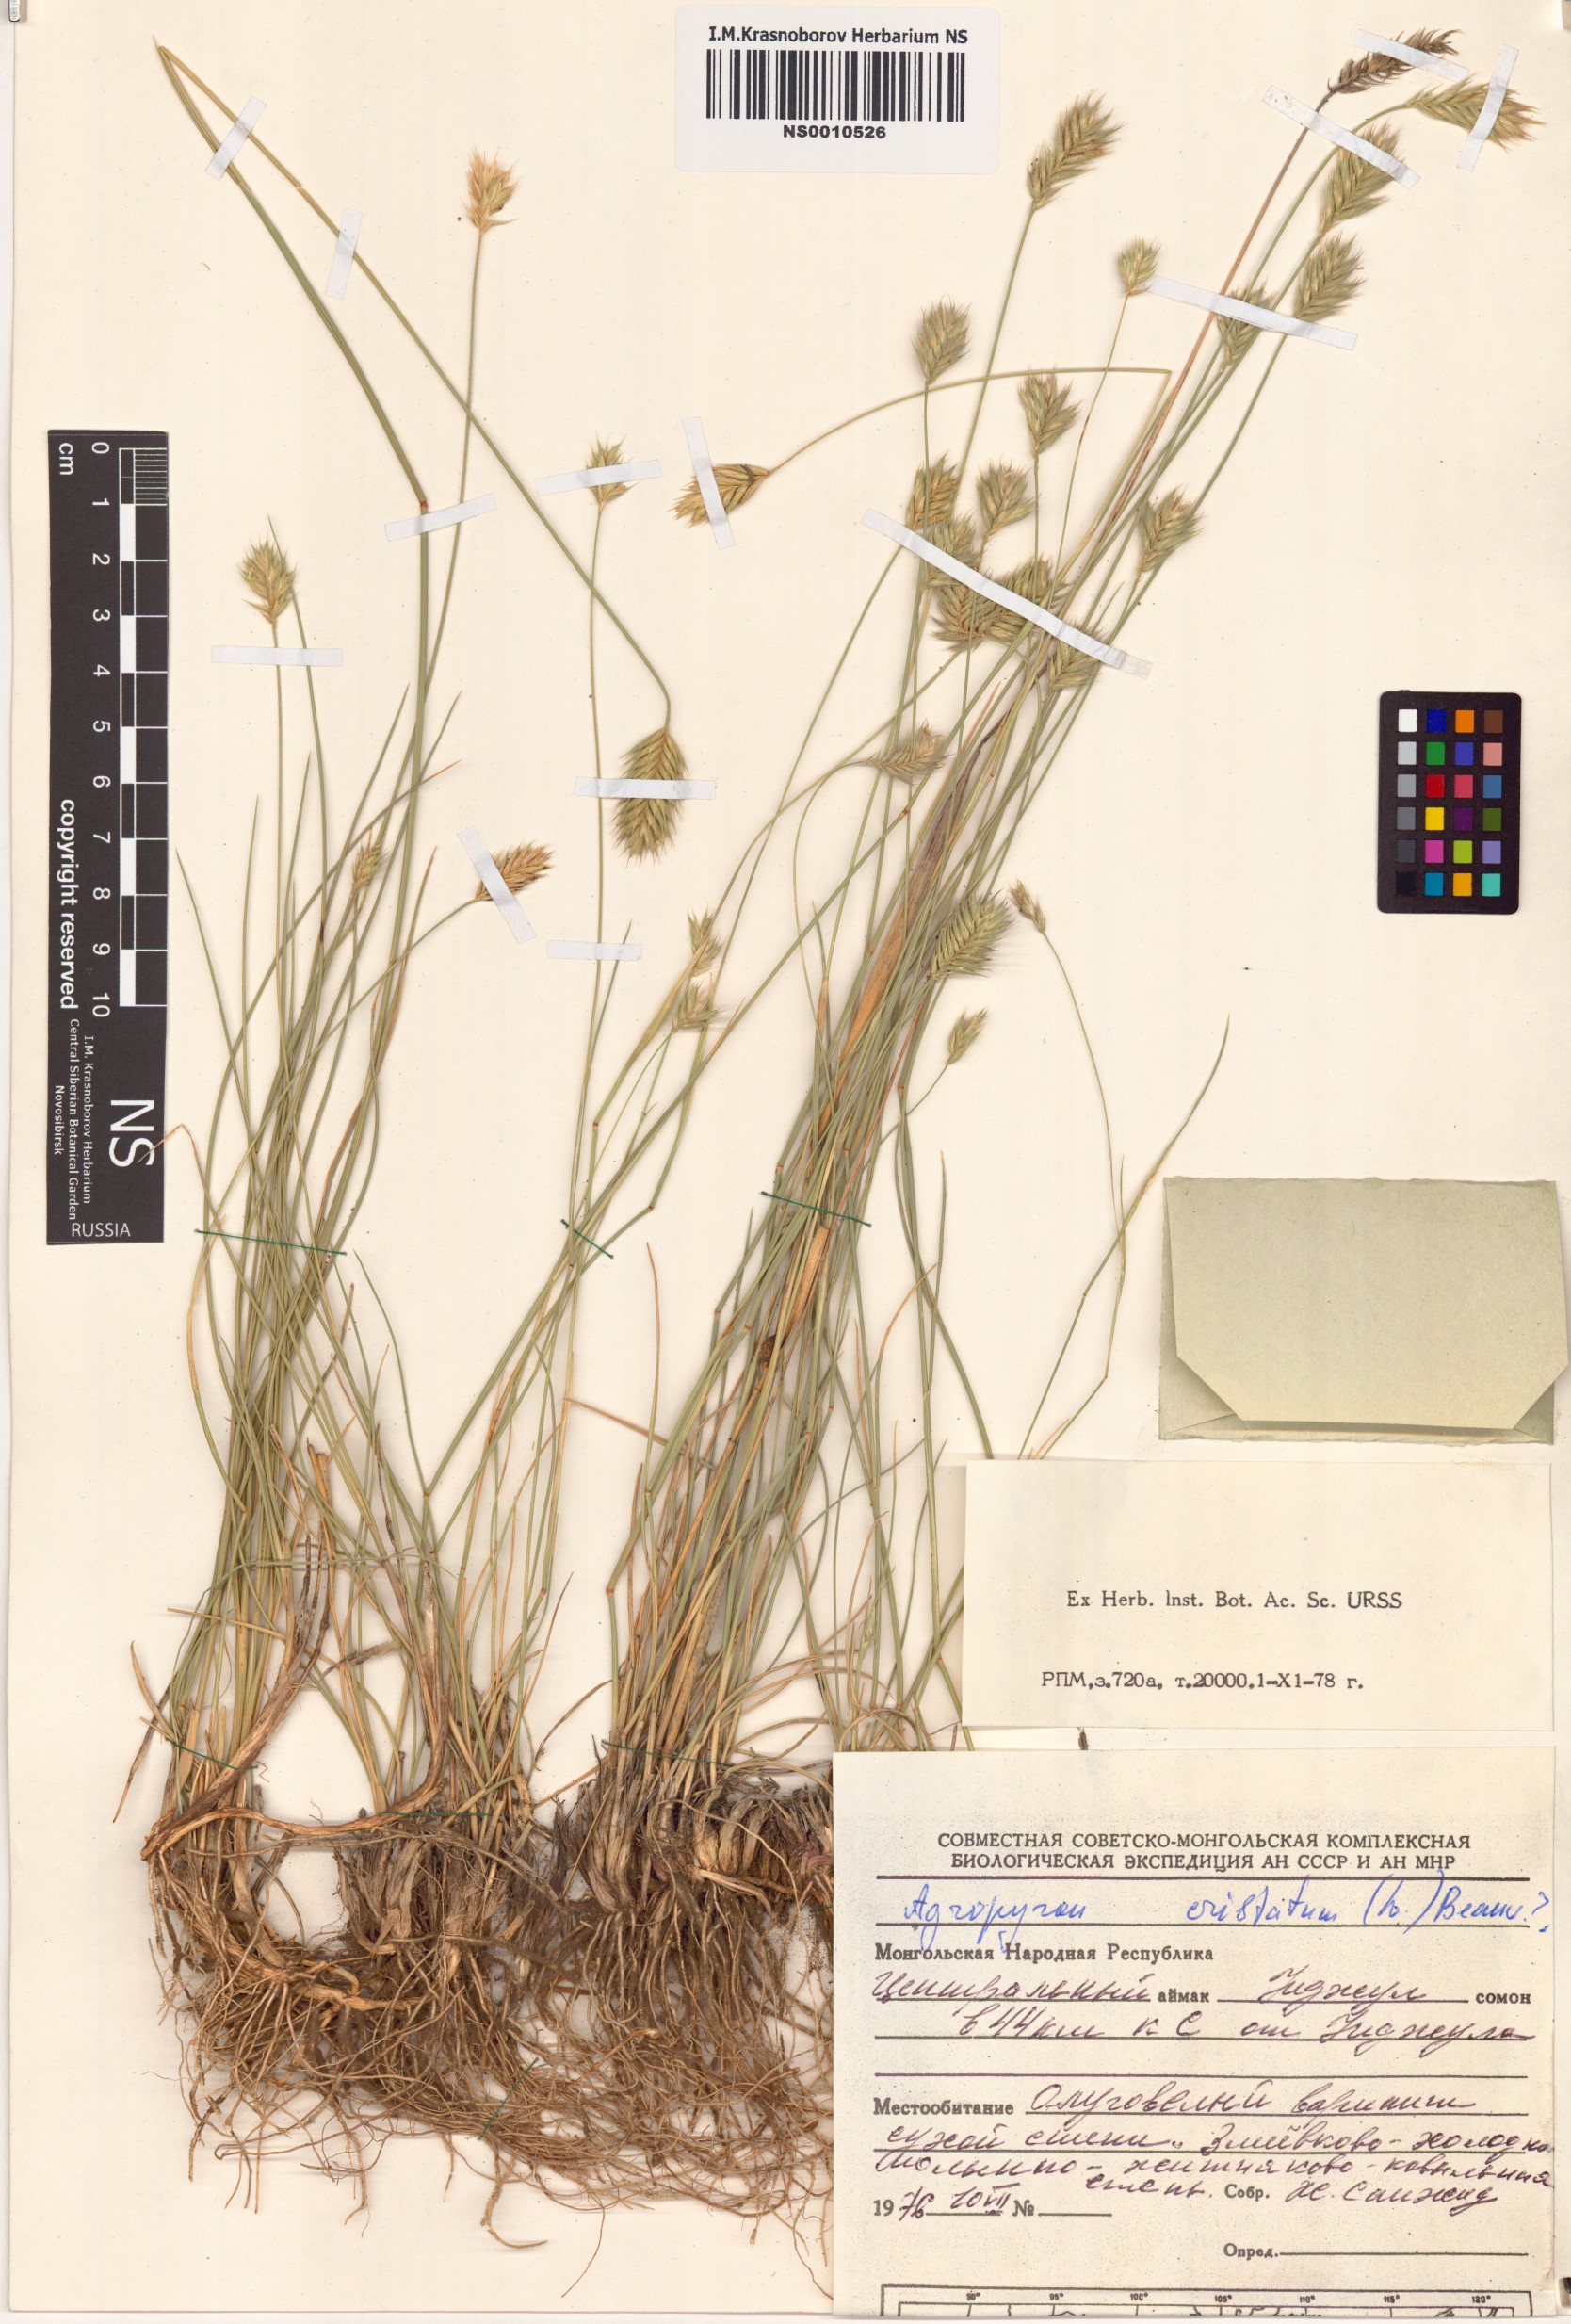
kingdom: Plantae
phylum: Tracheophyta
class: Liliopsida
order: Poales
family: Poaceae
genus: Agropyron
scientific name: Agropyron cristatum
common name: Crested wheatgrass
